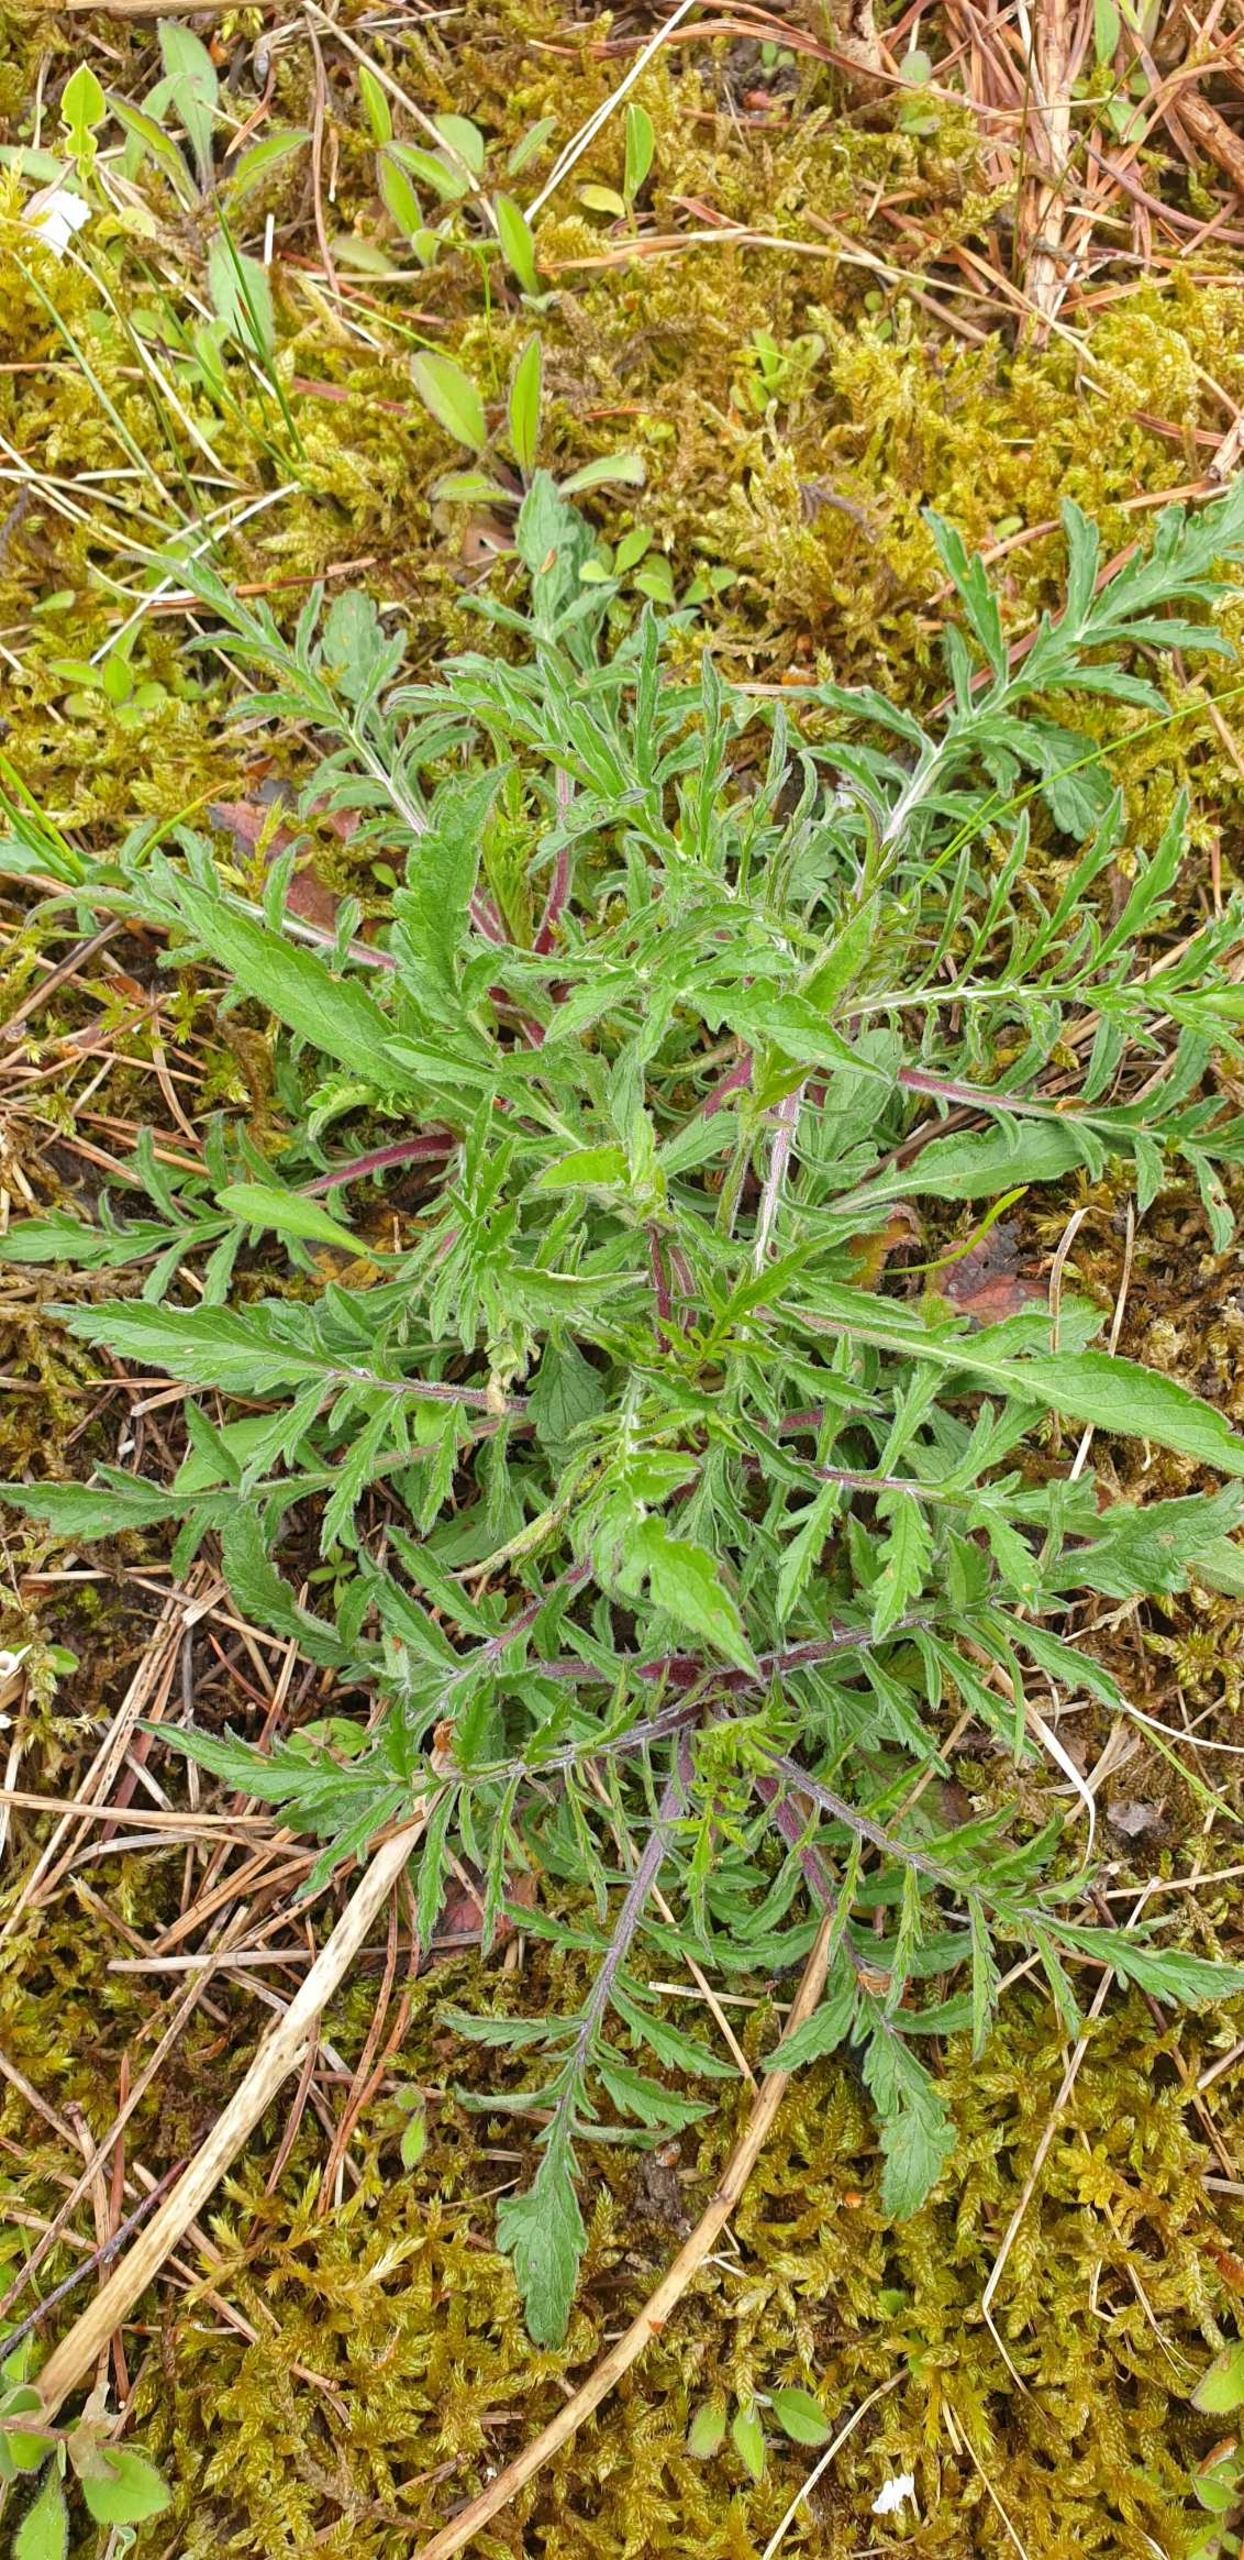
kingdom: Plantae
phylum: Tracheophyta
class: Magnoliopsida
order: Dipsacales
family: Caprifoliaceae
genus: Scabiosa
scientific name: Scabiosa columbaria
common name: Due-skabiose
